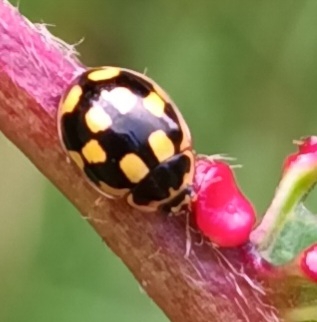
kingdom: Animalia
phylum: Arthropoda
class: Insecta
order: Coleoptera
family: Coccinellidae
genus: Propylaea
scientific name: Propylaea quatuordecimpunctata
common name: Skakbræt
